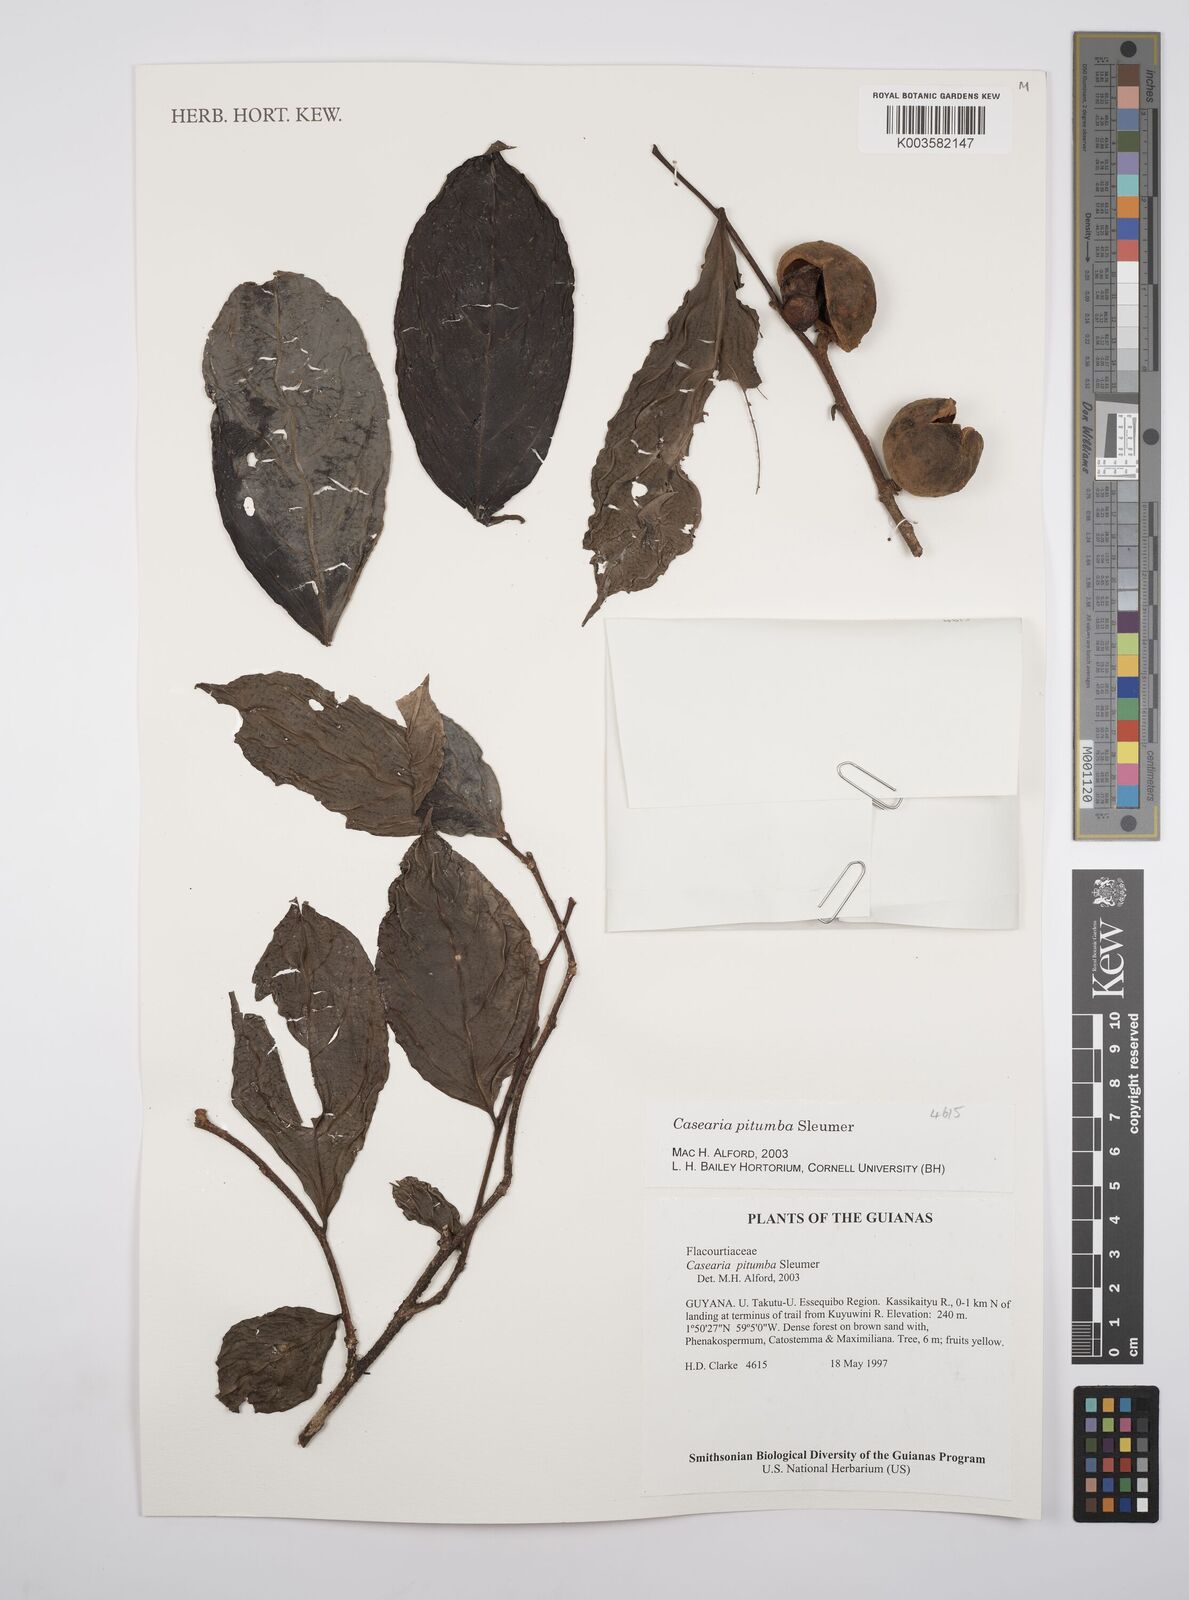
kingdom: Plantae
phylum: Tracheophyta
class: Magnoliopsida
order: Malpighiales
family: Salicaceae
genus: Casearia
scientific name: Casearia pitumba
